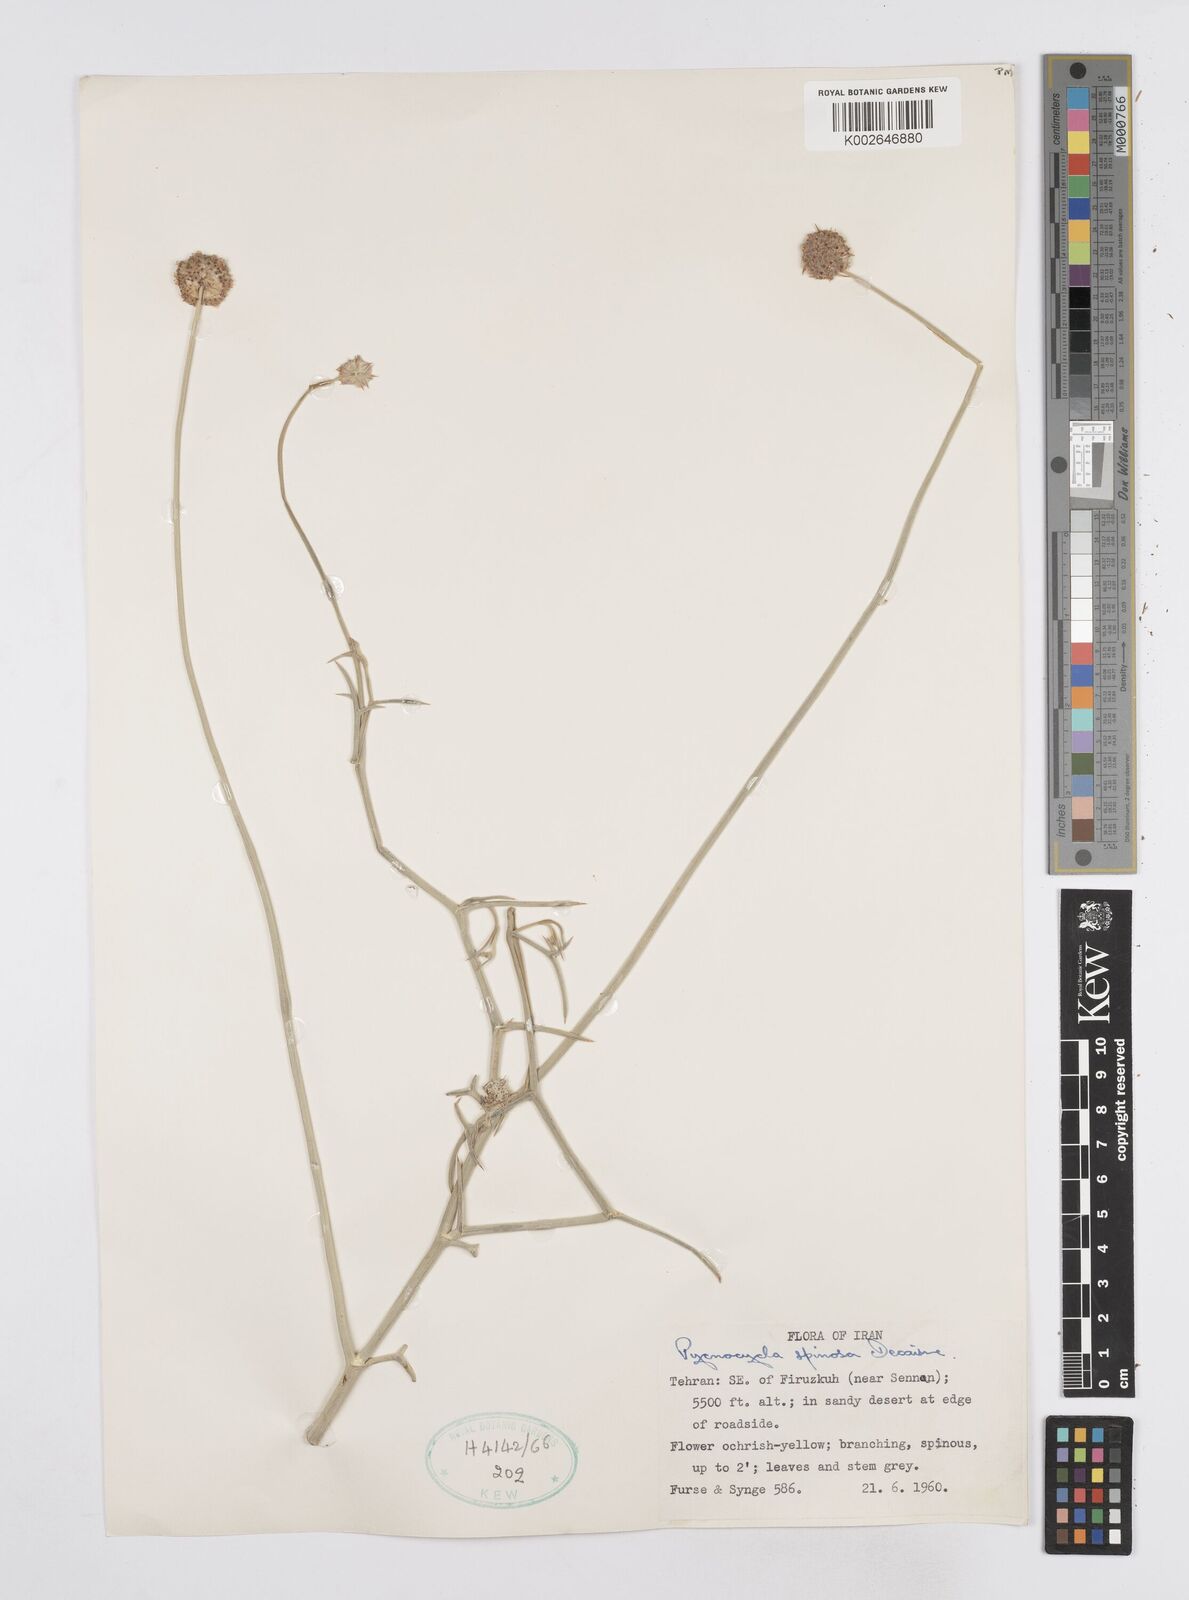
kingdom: Plantae
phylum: Tracheophyta
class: Magnoliopsida
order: Apiales
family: Apiaceae
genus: Pycnocycla
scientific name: Pycnocycla spinosa
